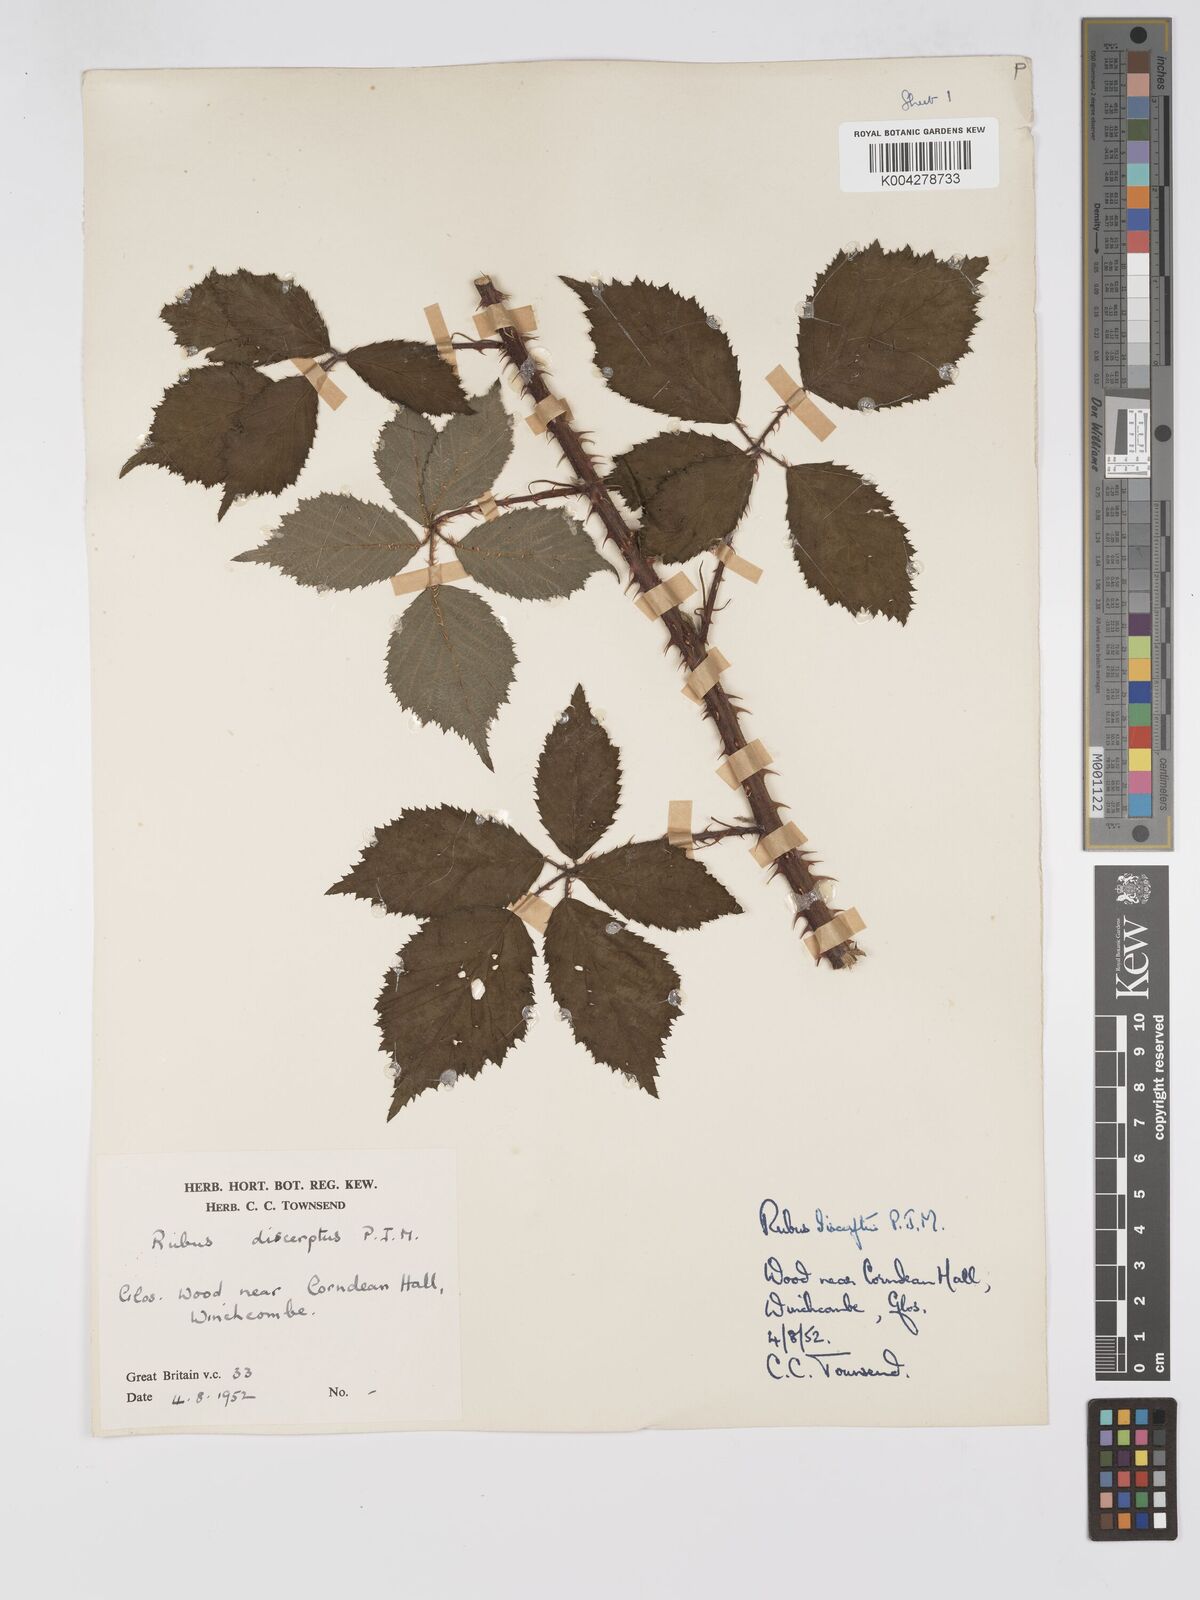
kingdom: Plantae
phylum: Tracheophyta
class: Magnoliopsida
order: Rosales
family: Rosaceae
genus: Rubus
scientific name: Rubus echinatus
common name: Echinate bramble
